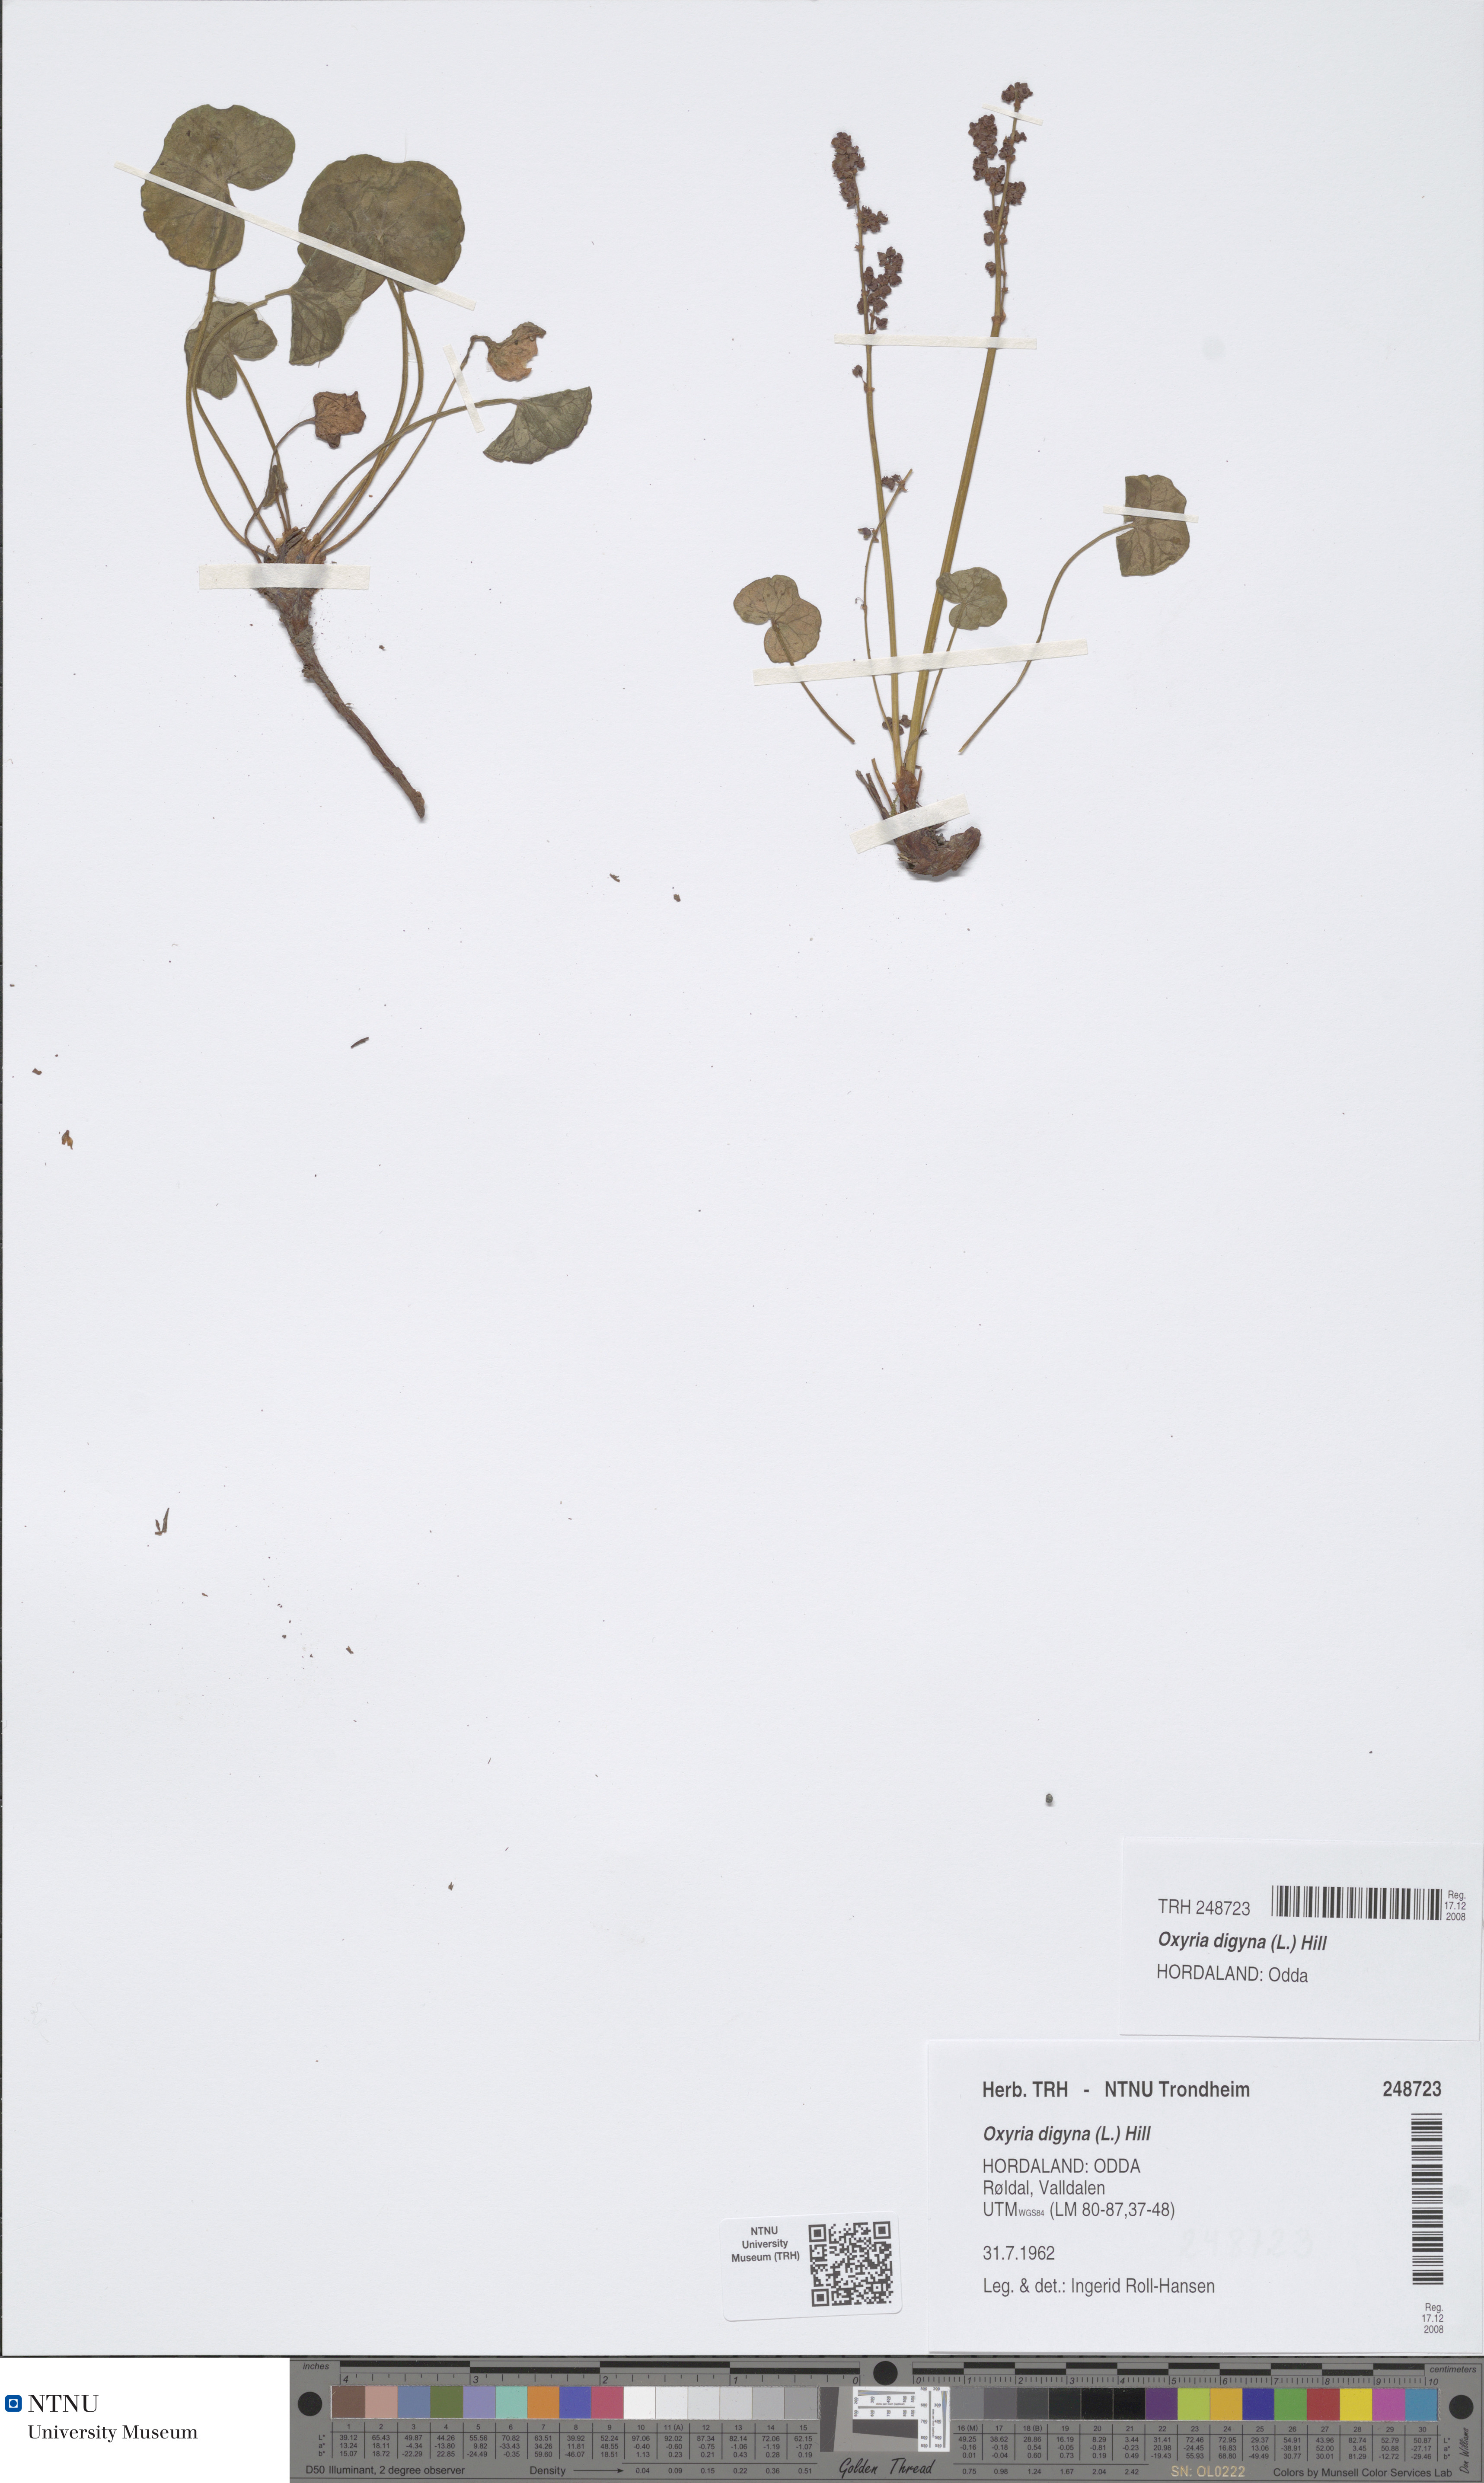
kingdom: Plantae
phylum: Tracheophyta
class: Magnoliopsida
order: Caryophyllales
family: Polygonaceae
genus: Oxyria
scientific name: Oxyria digyna
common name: Alpine mountain-sorrel
